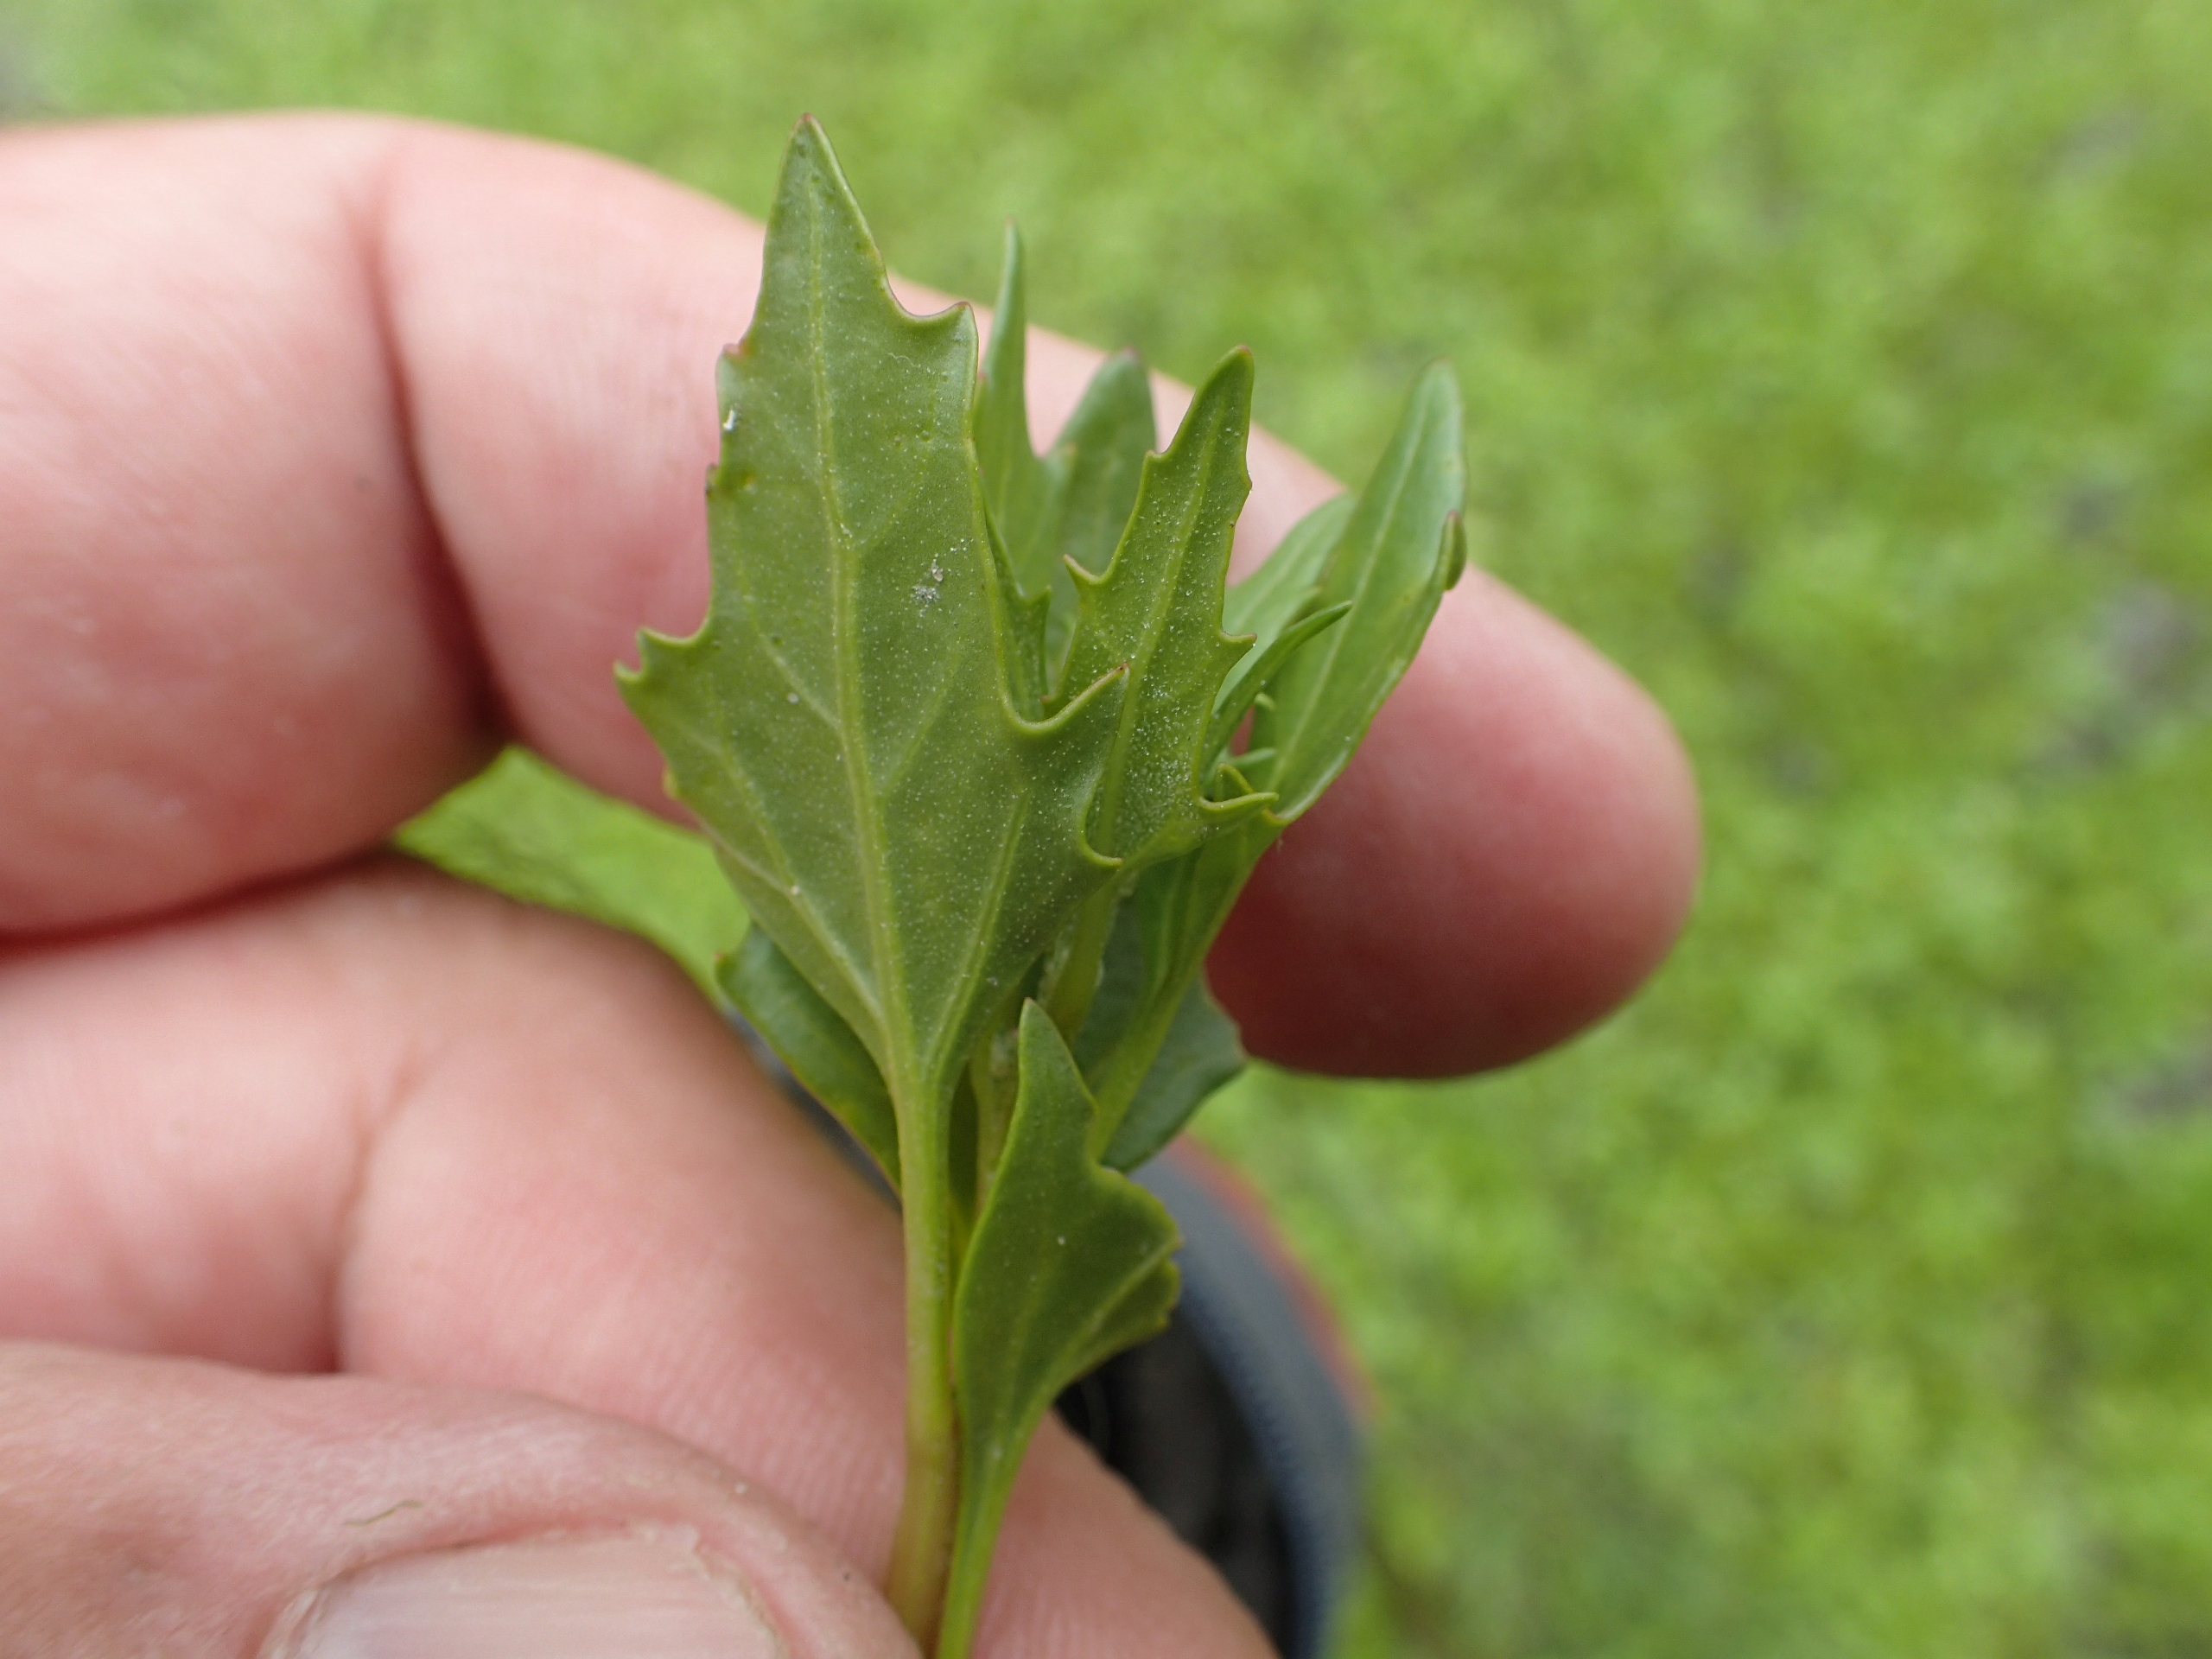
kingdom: Plantae
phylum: Tracheophyta
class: Magnoliopsida
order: Caryophyllales
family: Amaranthaceae
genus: Oxybasis
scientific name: Oxybasis rubra
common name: Rød gåsefod
